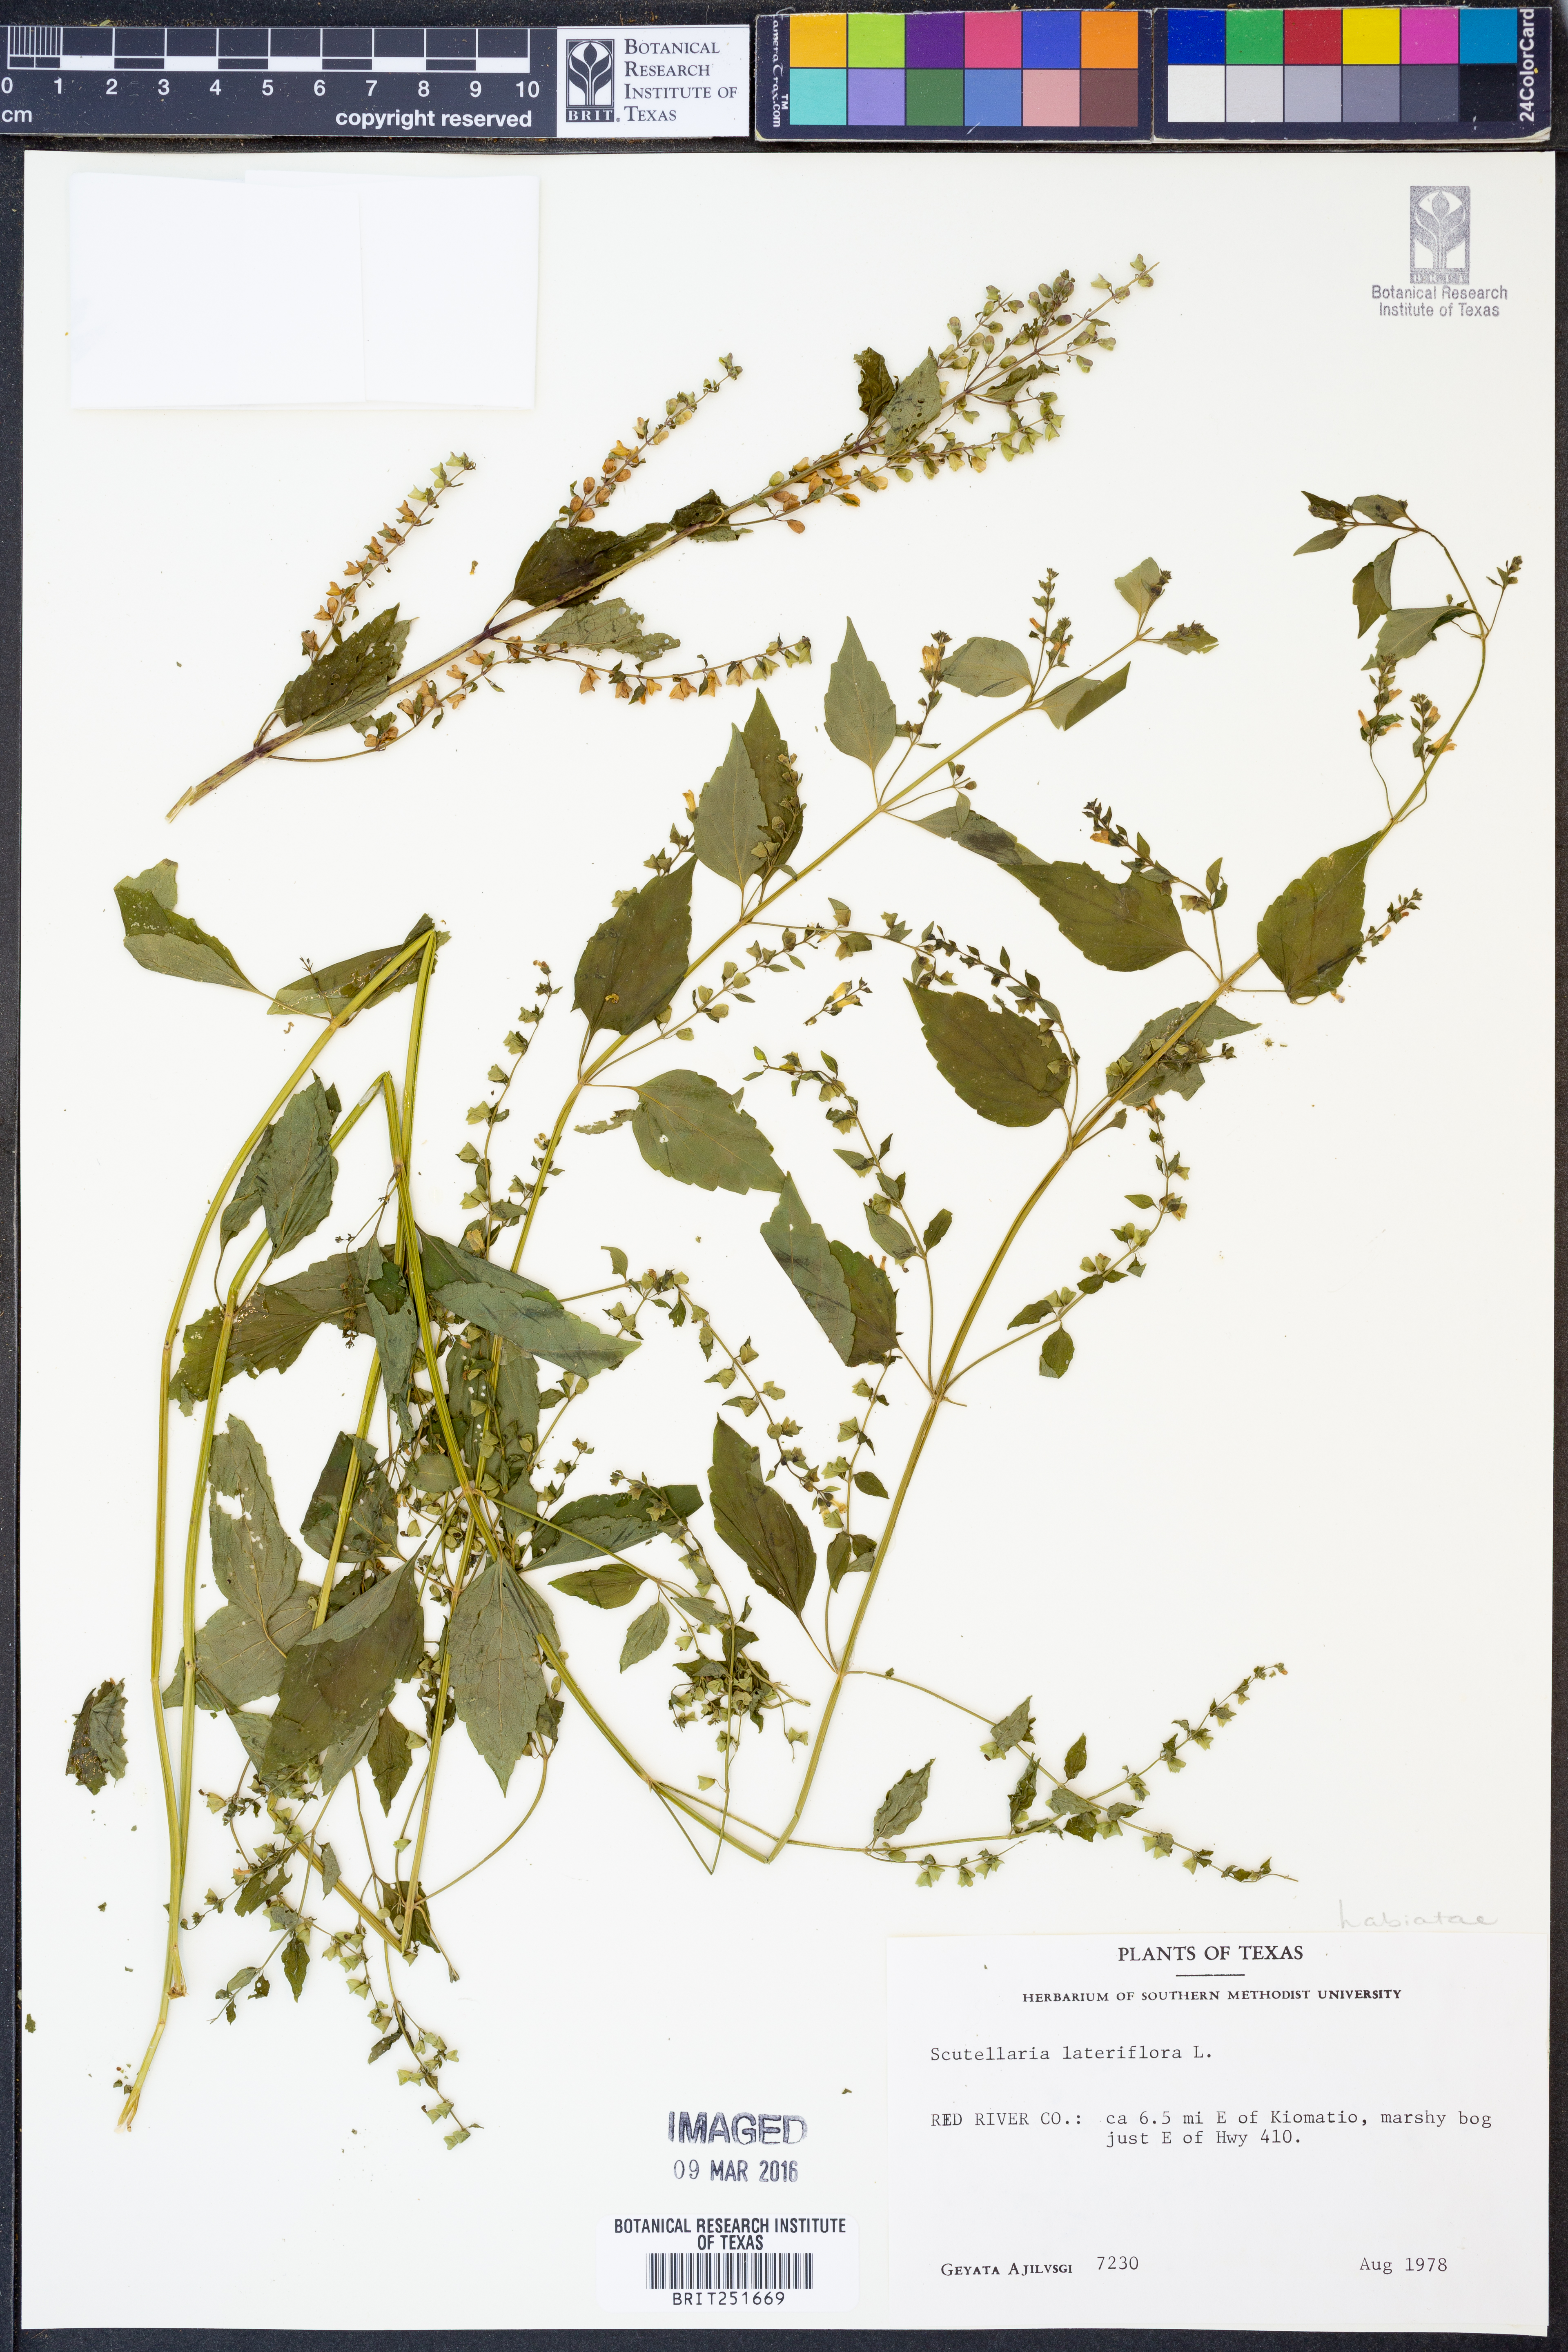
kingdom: Plantae
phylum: Tracheophyta
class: Magnoliopsida
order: Lamiales
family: Lamiaceae
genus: Scutellaria
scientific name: Scutellaria lateriflora
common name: Blue skullcap
